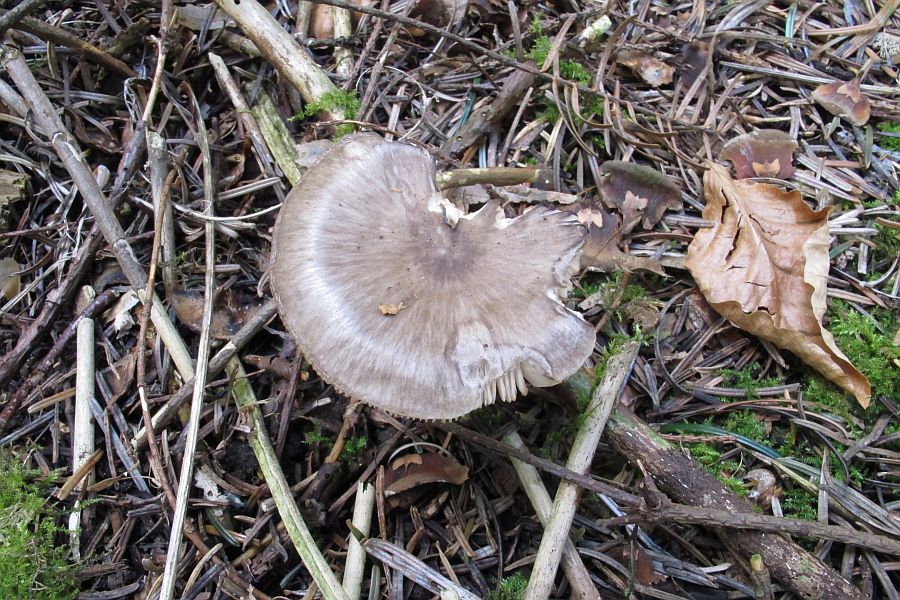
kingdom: Fungi
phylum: Basidiomycota
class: Agaricomycetes
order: Agaricales
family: Pluteaceae
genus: Pluteus
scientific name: Pluteus primus
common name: tidlig skærmhat
